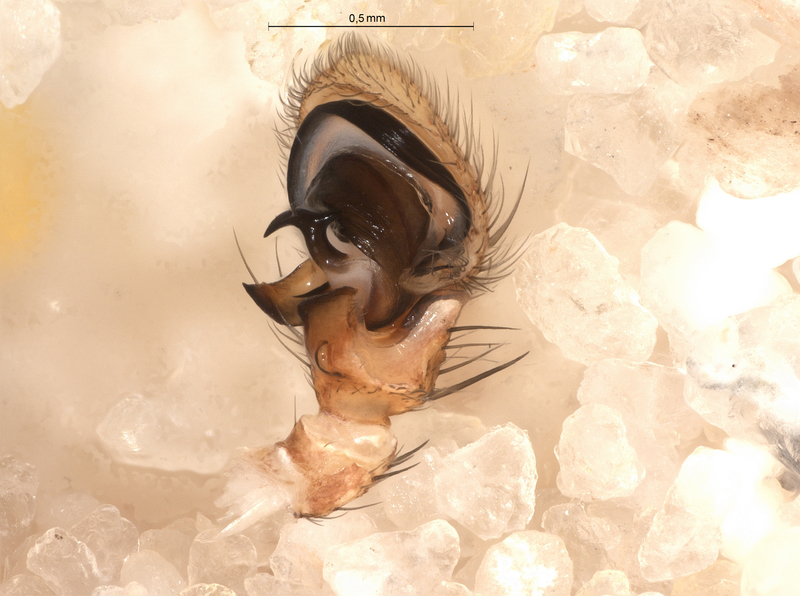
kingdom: Animalia
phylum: Arthropoda
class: Arachnida
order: Araneae
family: Thomisidae
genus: Xysticus
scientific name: Xysticus cristatus
